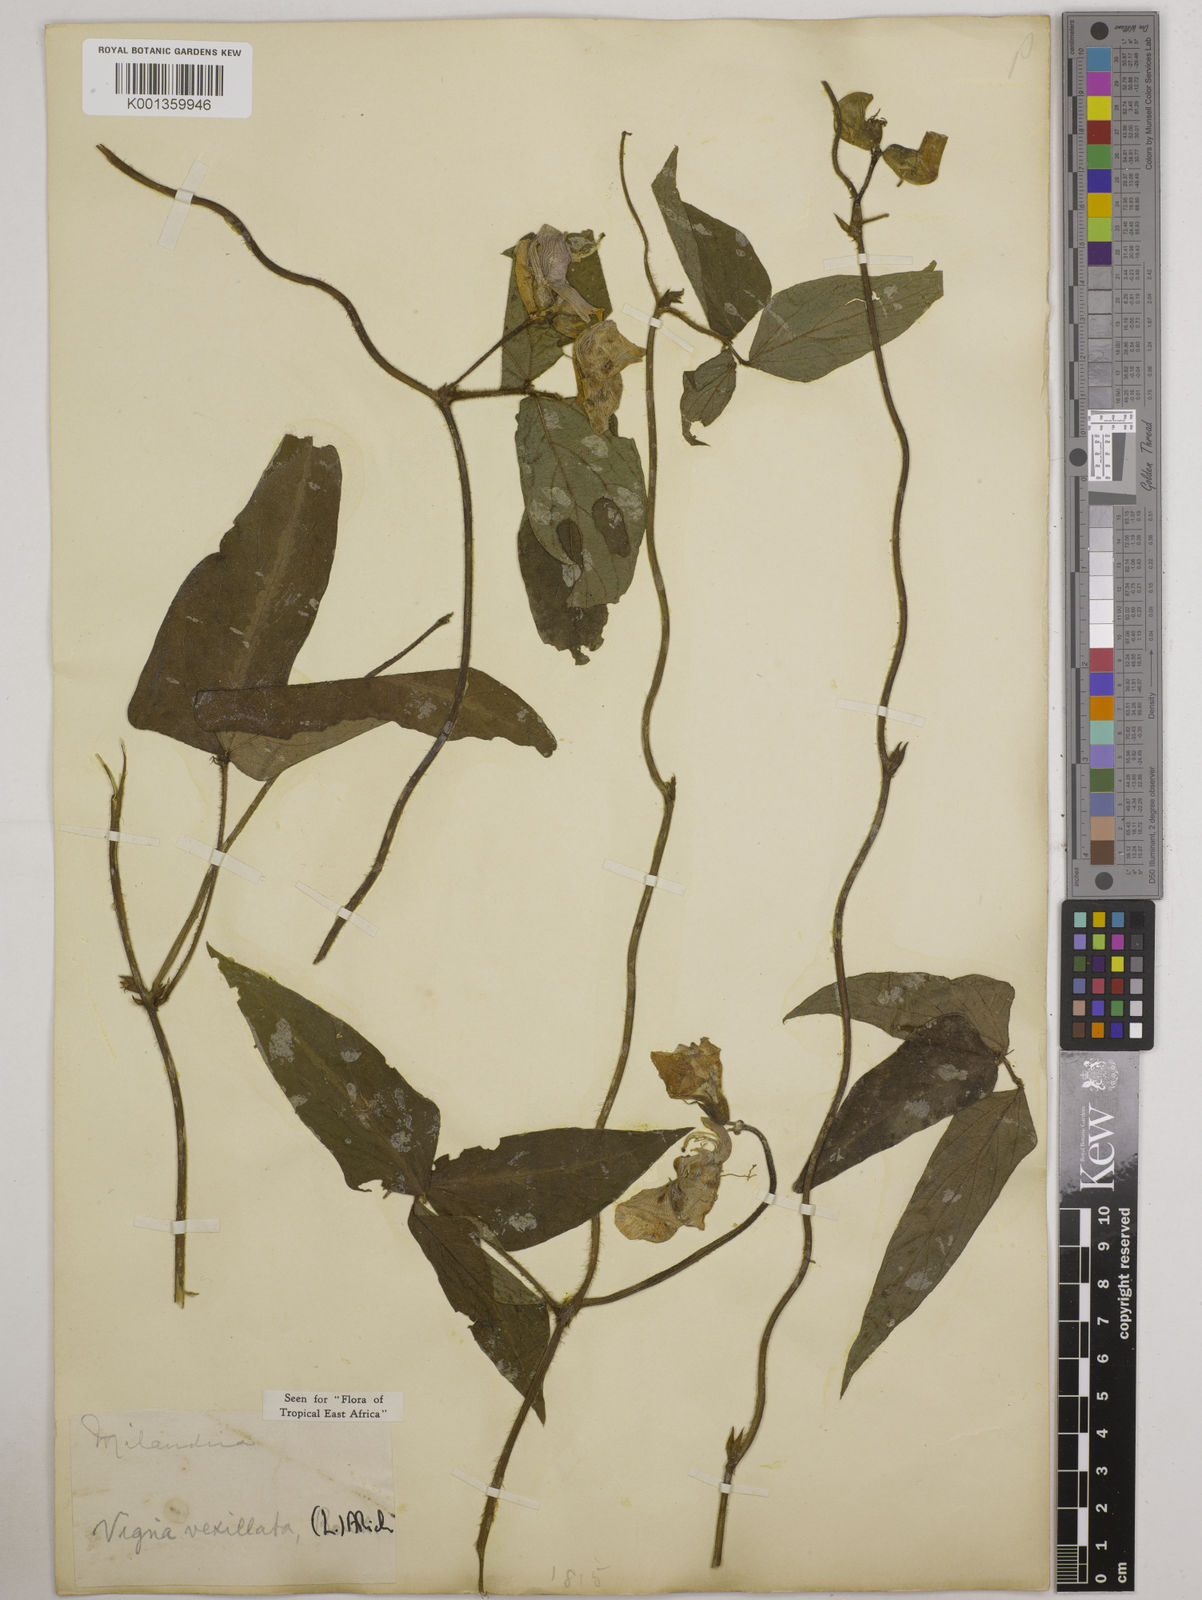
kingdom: Plantae
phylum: Tracheophyta
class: Magnoliopsida
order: Fabales
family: Fabaceae
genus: Vigna
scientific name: Vigna vexillata
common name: Zombi pea
